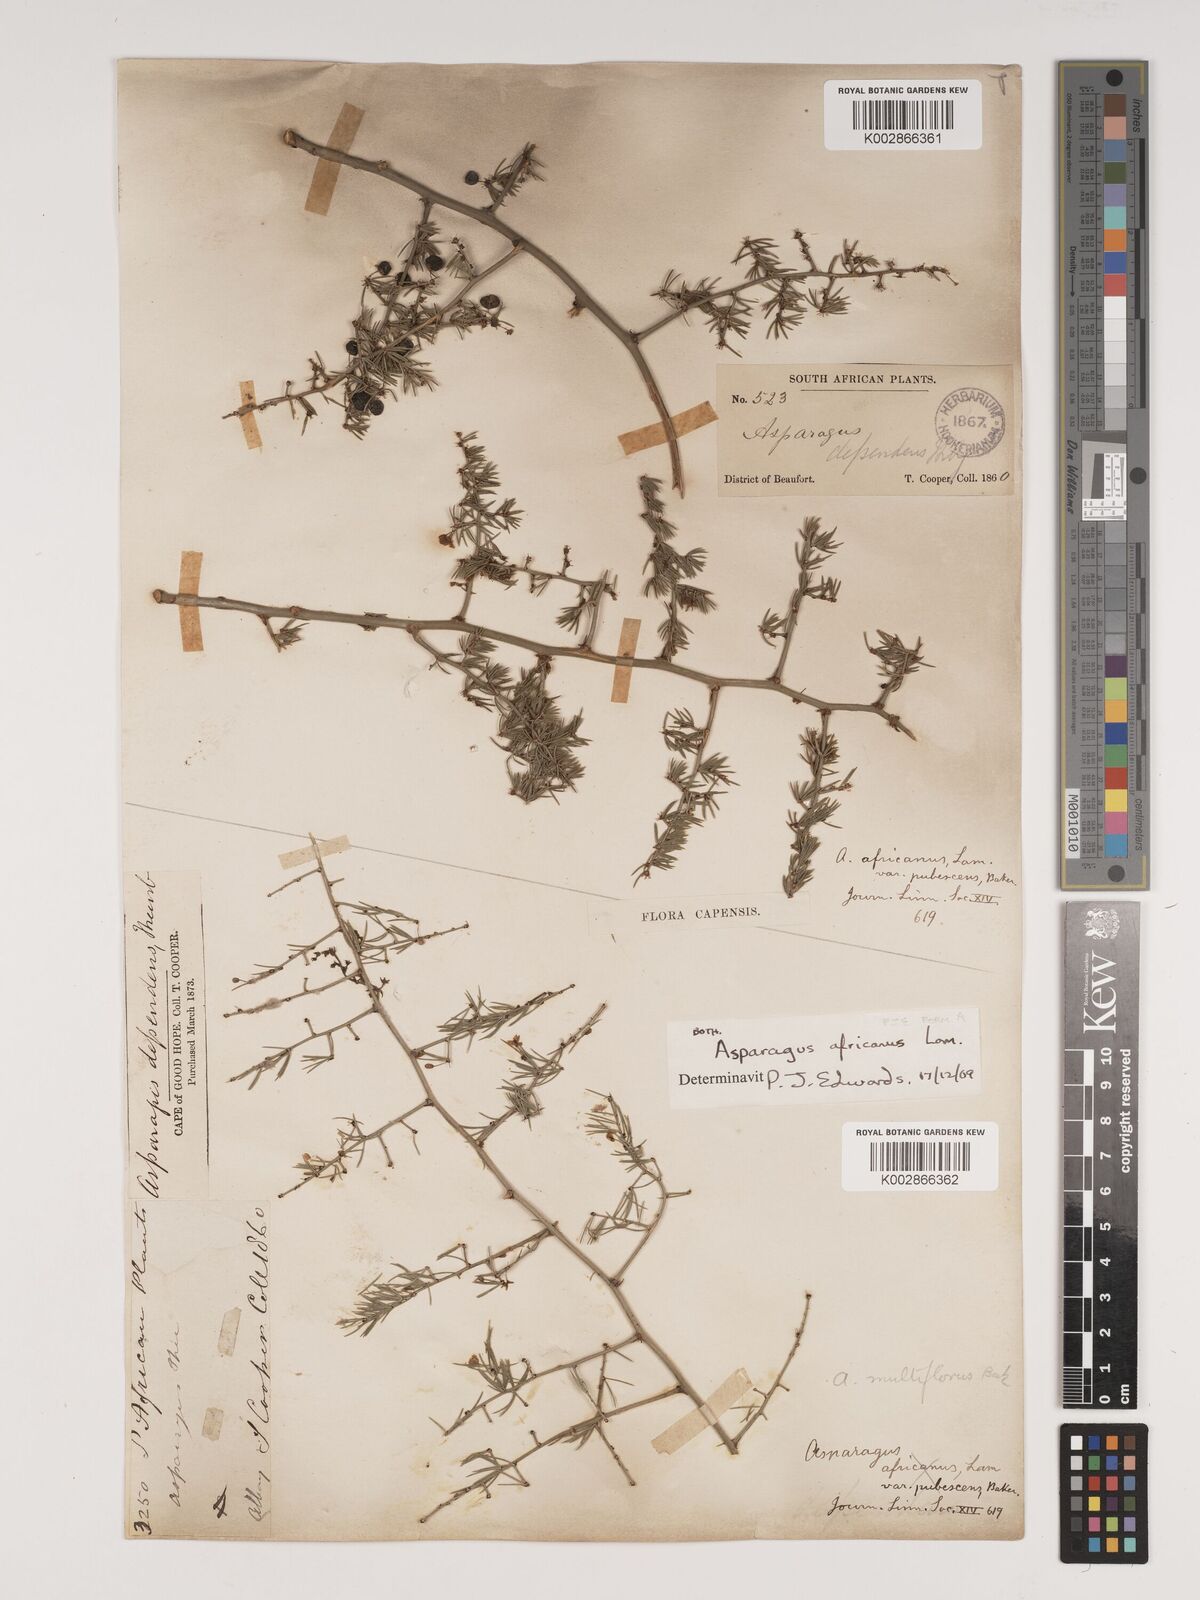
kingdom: Plantae
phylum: Tracheophyta
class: Liliopsida
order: Asparagales
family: Asparagaceae
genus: Asparagus
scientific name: Asparagus africanus
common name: Asparagus-fern
